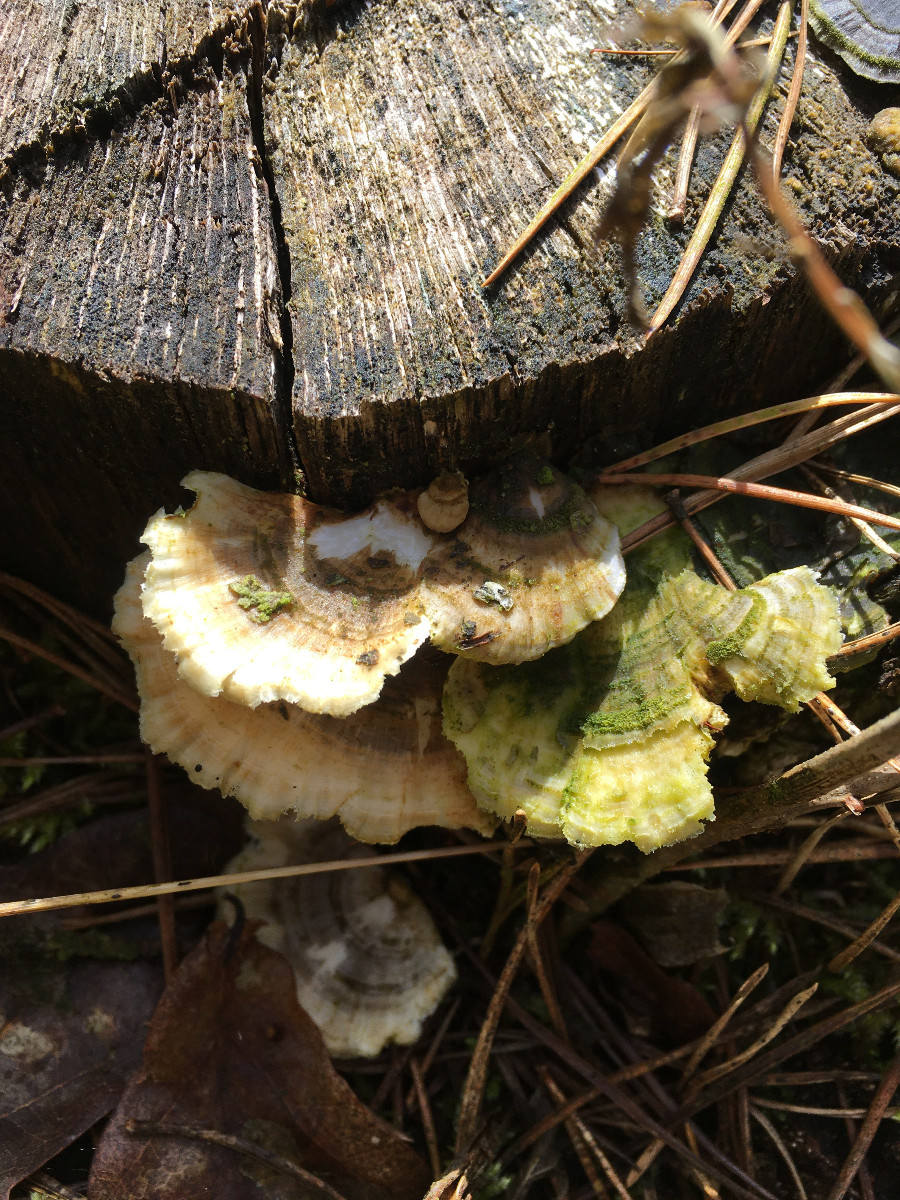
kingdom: Fungi
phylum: Basidiomycota
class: Agaricomycetes
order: Polyporales
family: Polyporaceae
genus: Trametes
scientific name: Trametes hirsuta
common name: håret læderporesvamp
